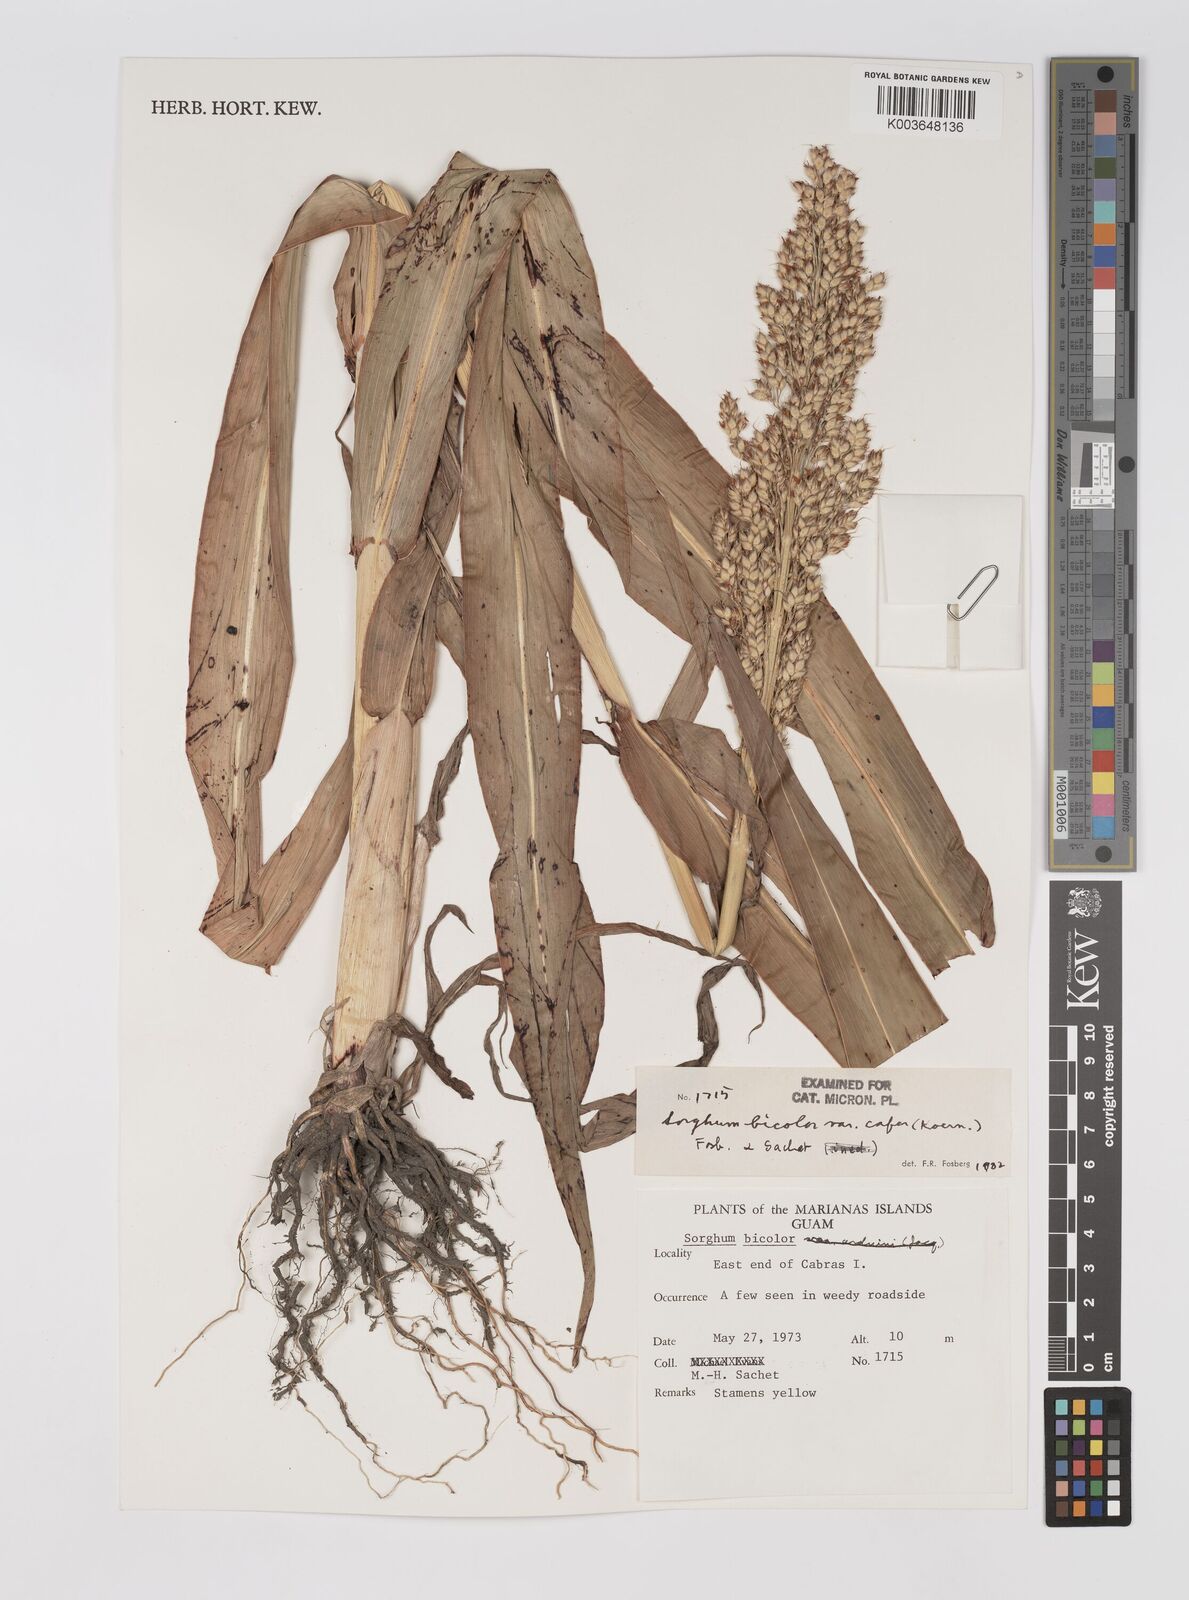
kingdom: Plantae
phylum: Tracheophyta
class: Liliopsida
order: Poales
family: Poaceae
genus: Sorghum
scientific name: Sorghum bicolor
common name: Sorghum
